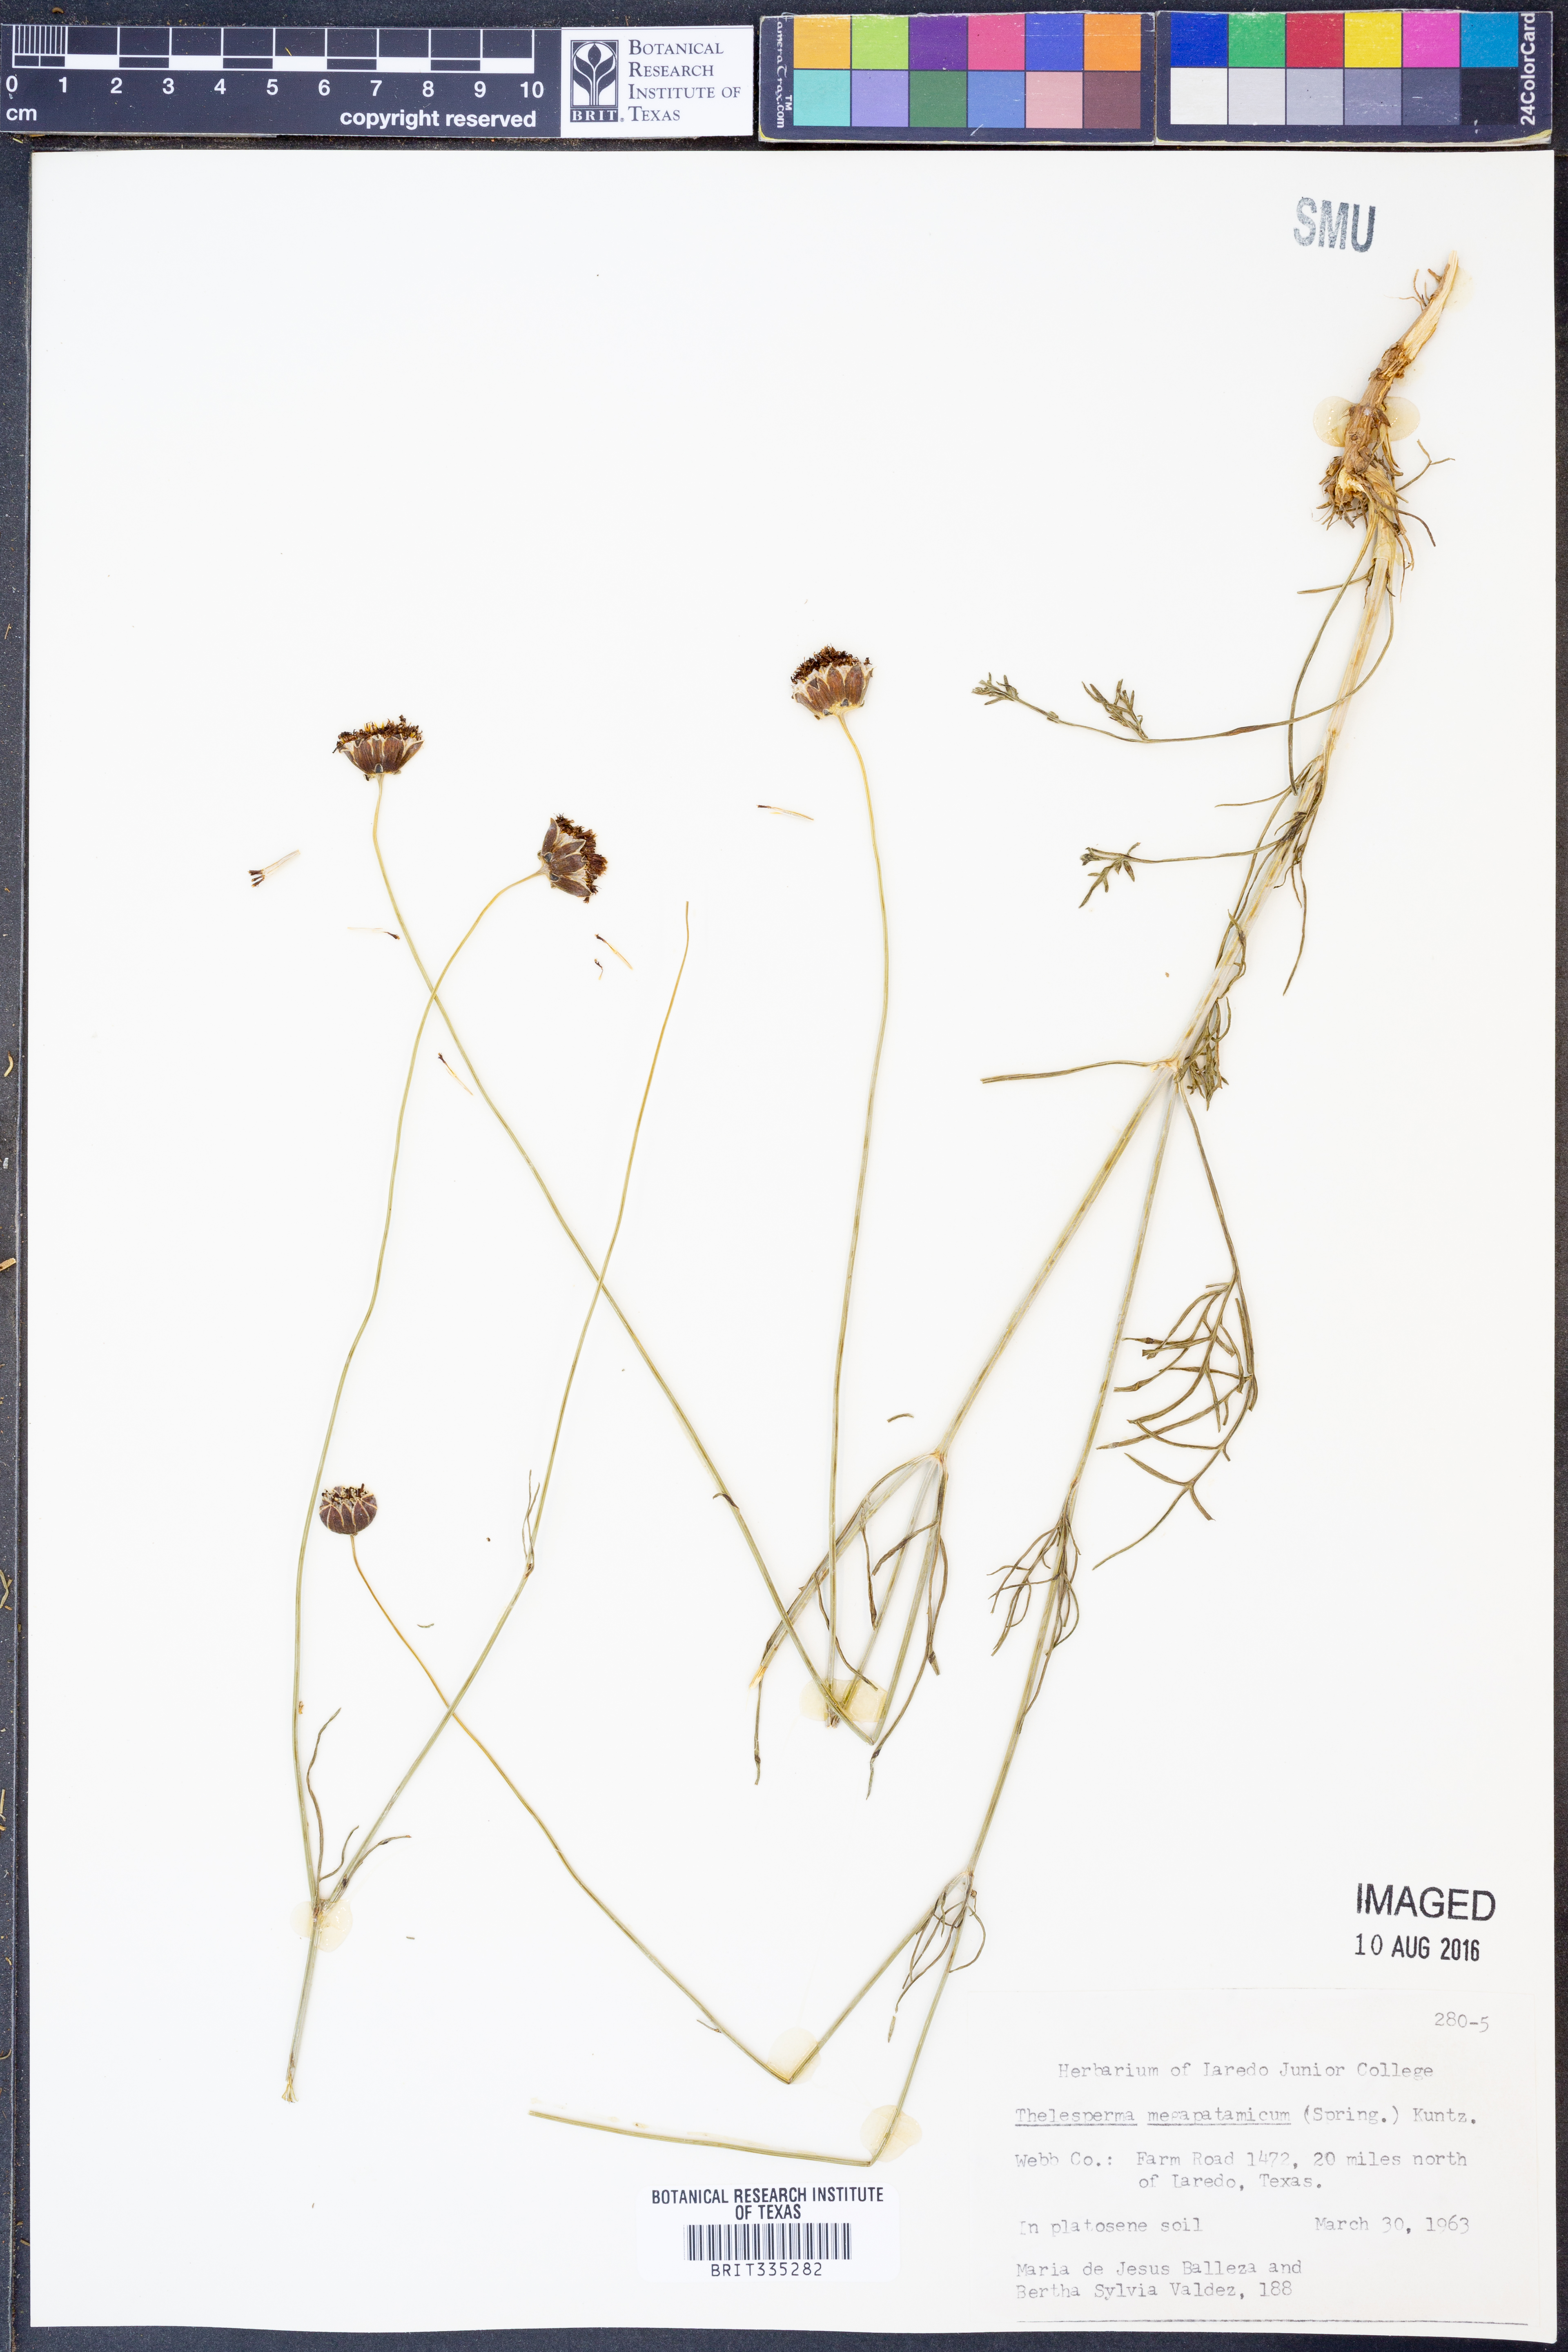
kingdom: Plantae
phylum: Tracheophyta
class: Magnoliopsida
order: Asterales
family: Asteraceae
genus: Thelesperma
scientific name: Thelesperma megapotamicum
